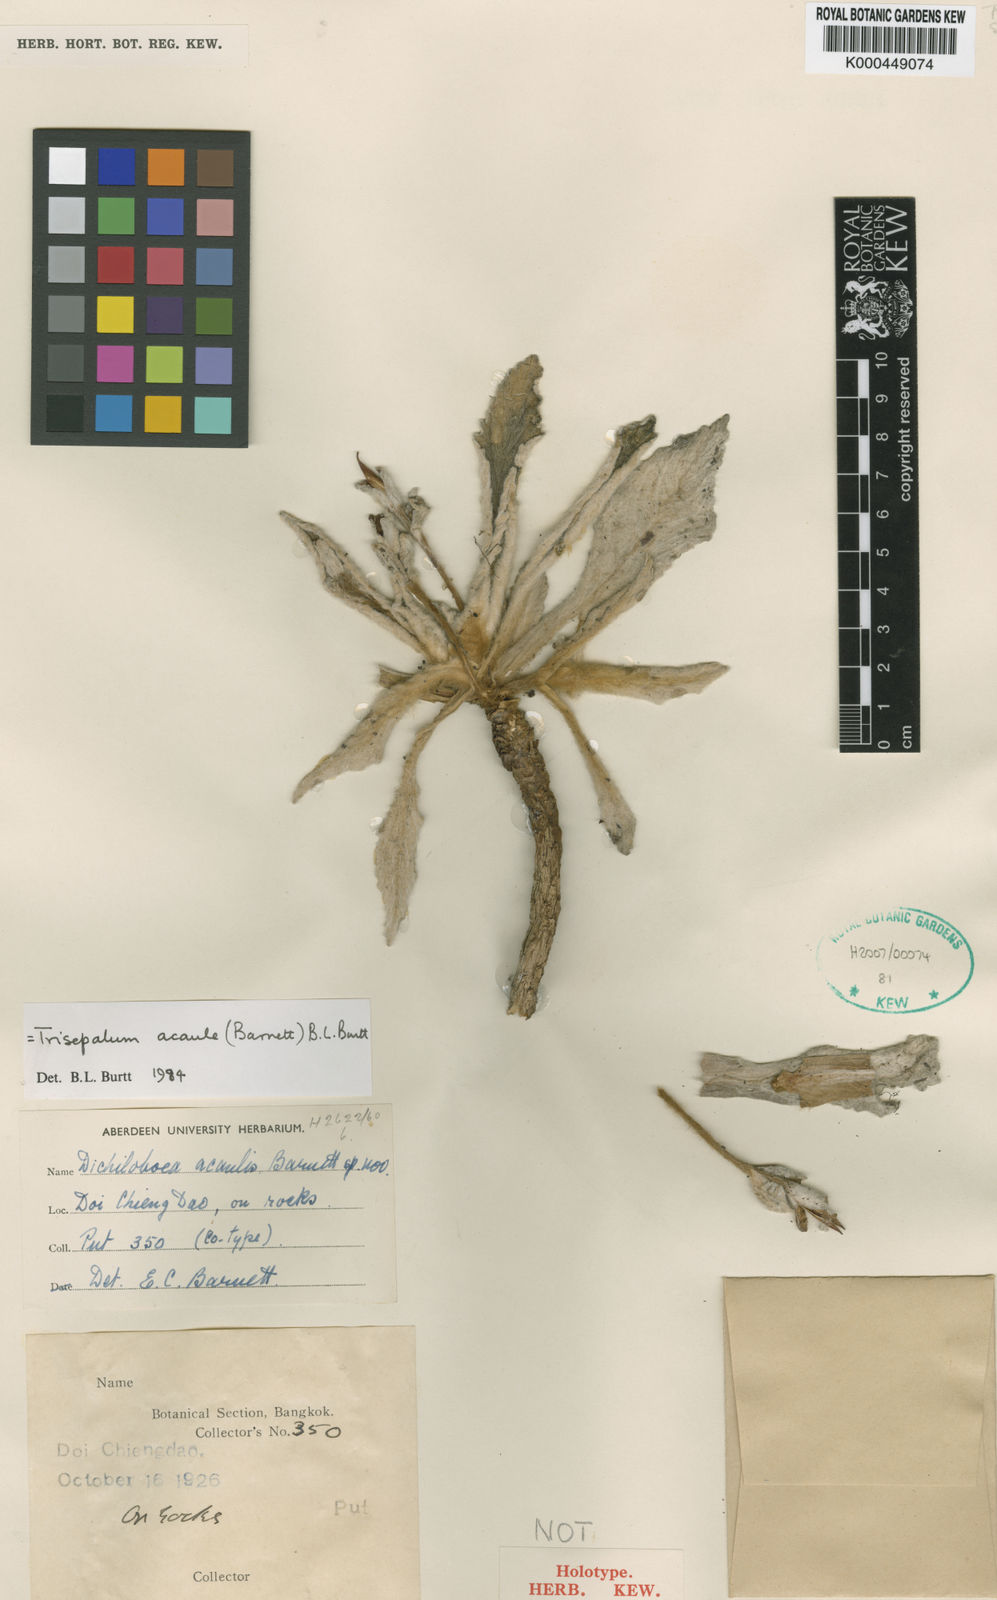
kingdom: Plantae
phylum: Tracheophyta
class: Magnoliopsida
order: Lamiales
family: Gesneriaceae
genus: Paraboea
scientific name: Paraboea acaulis
